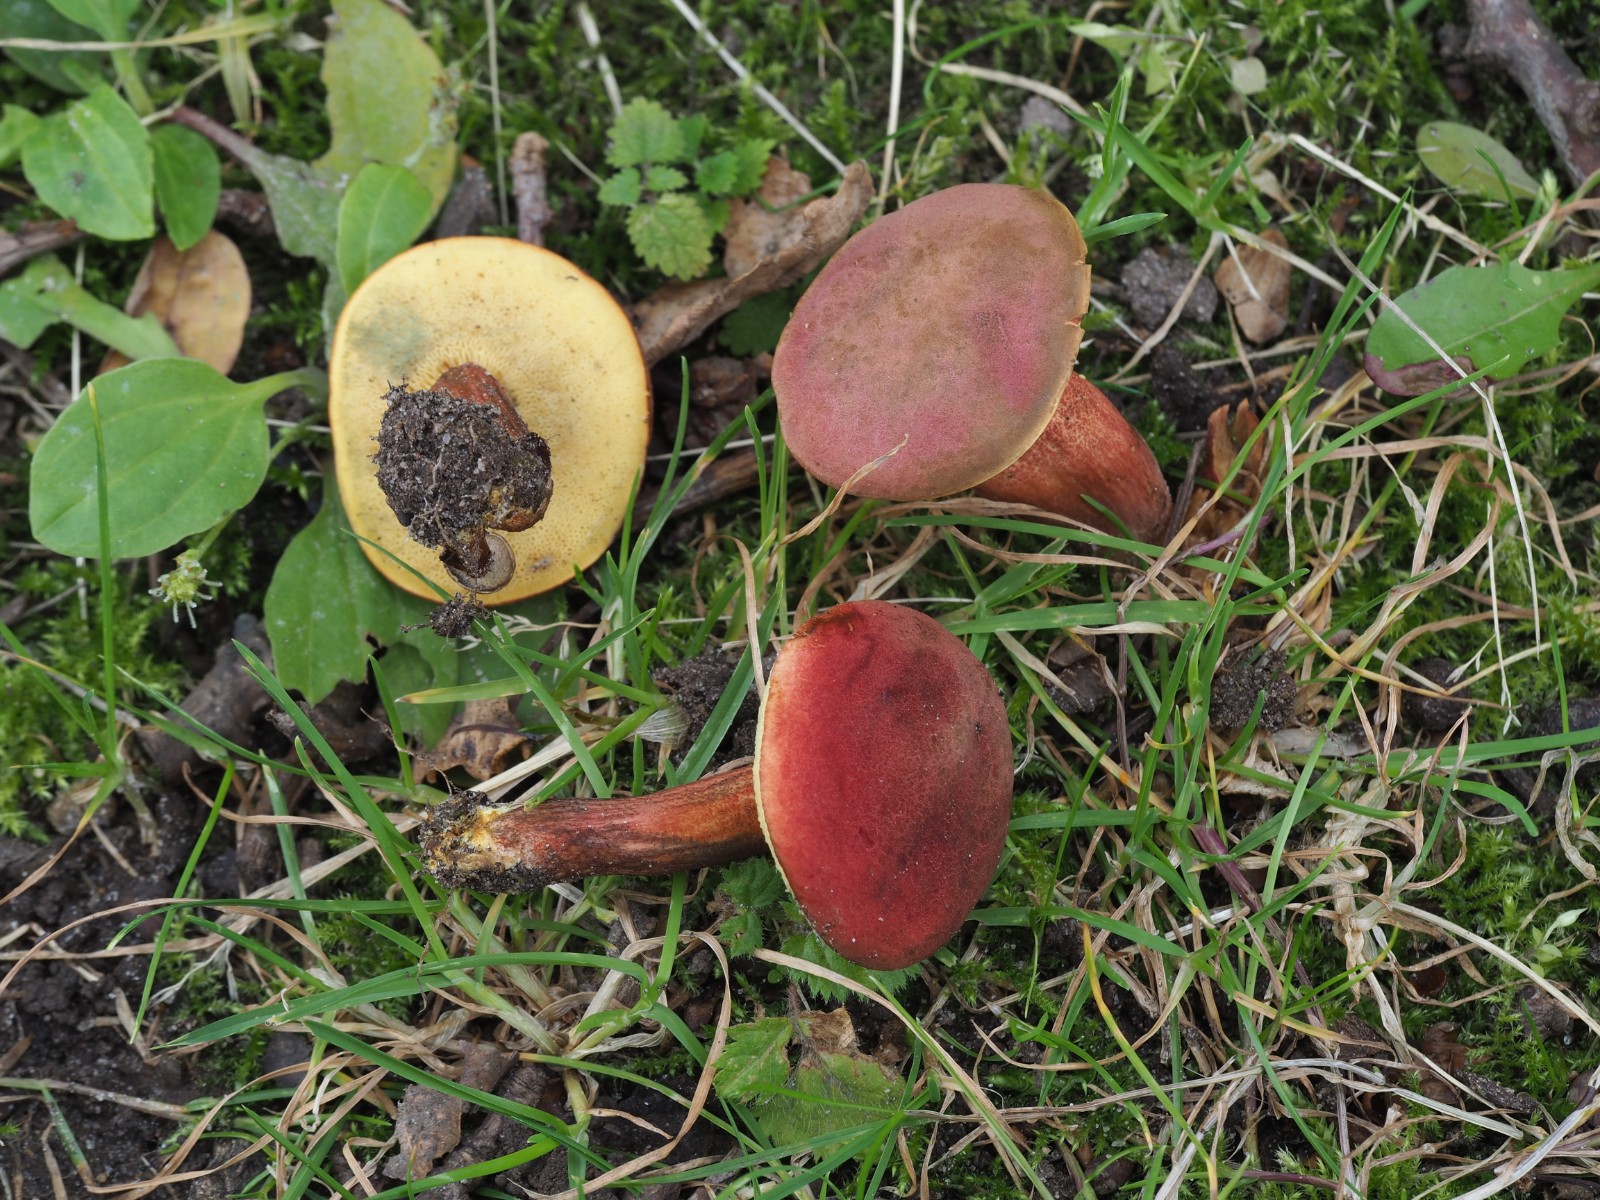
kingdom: Fungi
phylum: Basidiomycota
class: Agaricomycetes
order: Boletales
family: Boletaceae
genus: Hortiboletus
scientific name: Hortiboletus rubellus
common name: blodrød rørhat
